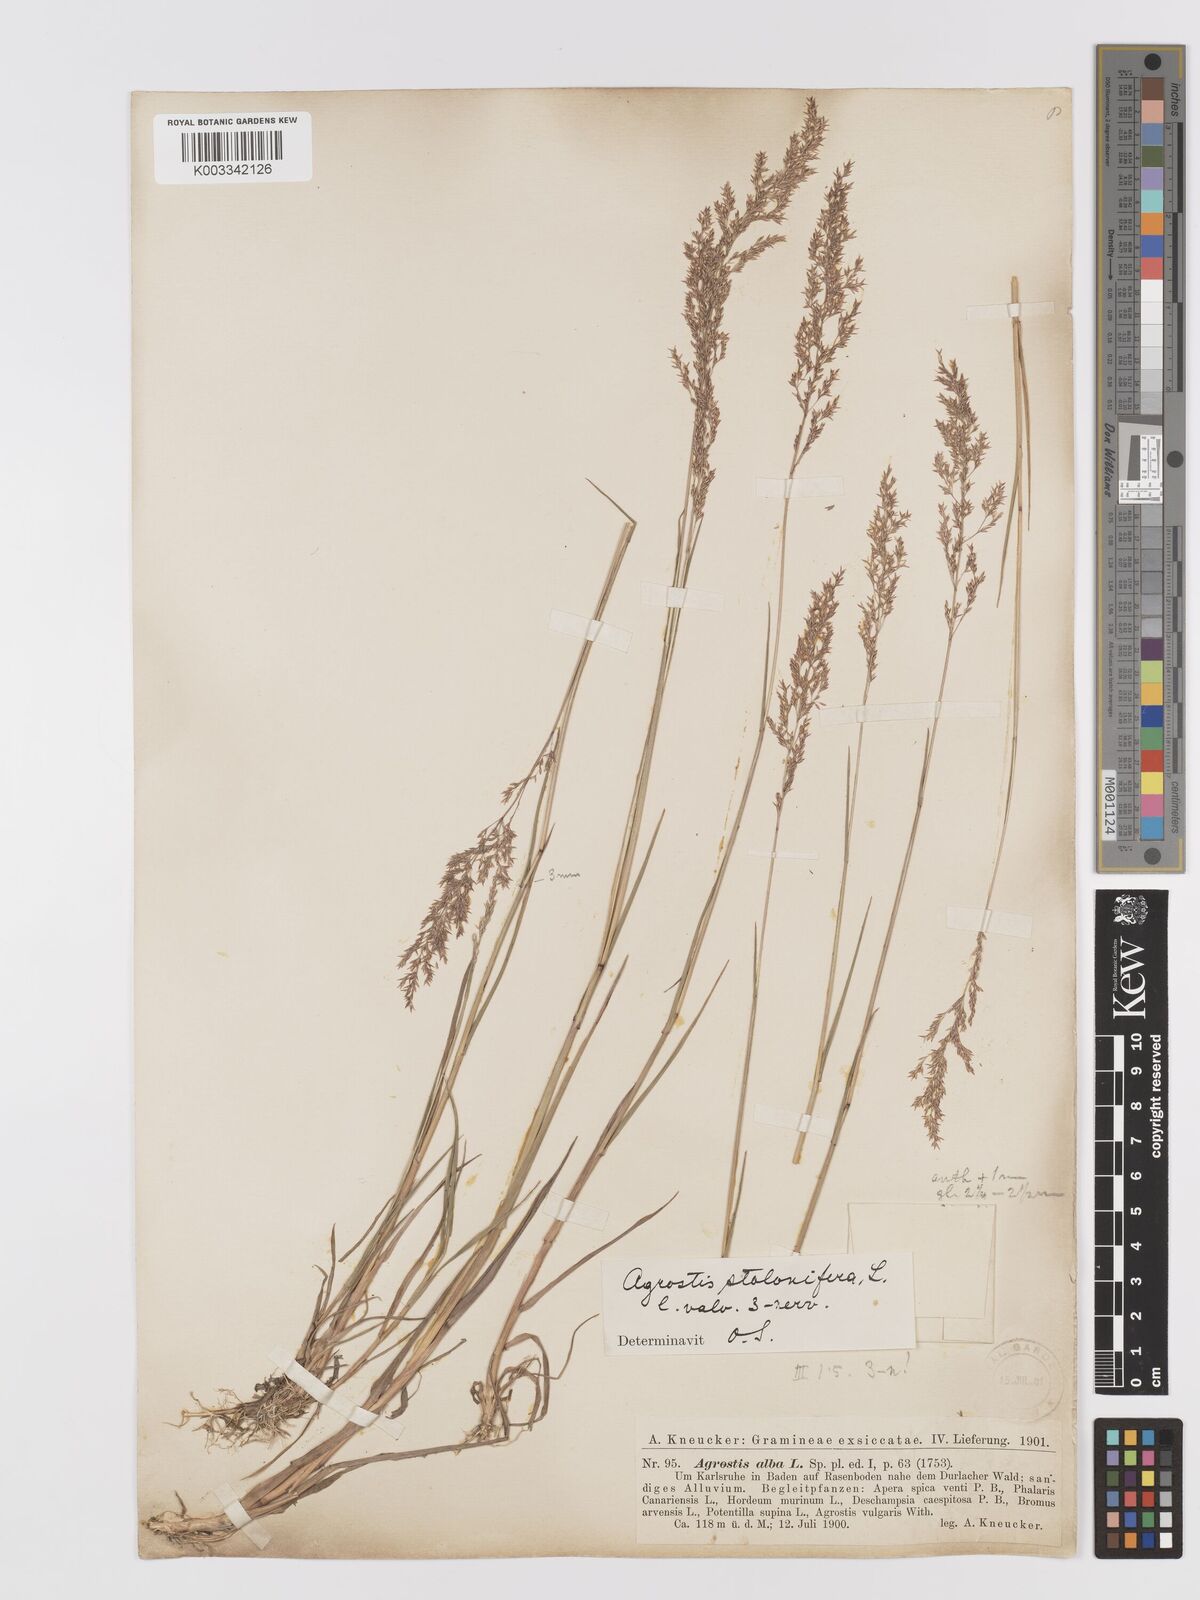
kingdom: Plantae
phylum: Tracheophyta
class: Liliopsida
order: Poales
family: Poaceae
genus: Agrostis
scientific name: Agrostis stolonifera
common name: Creeping bentgrass
